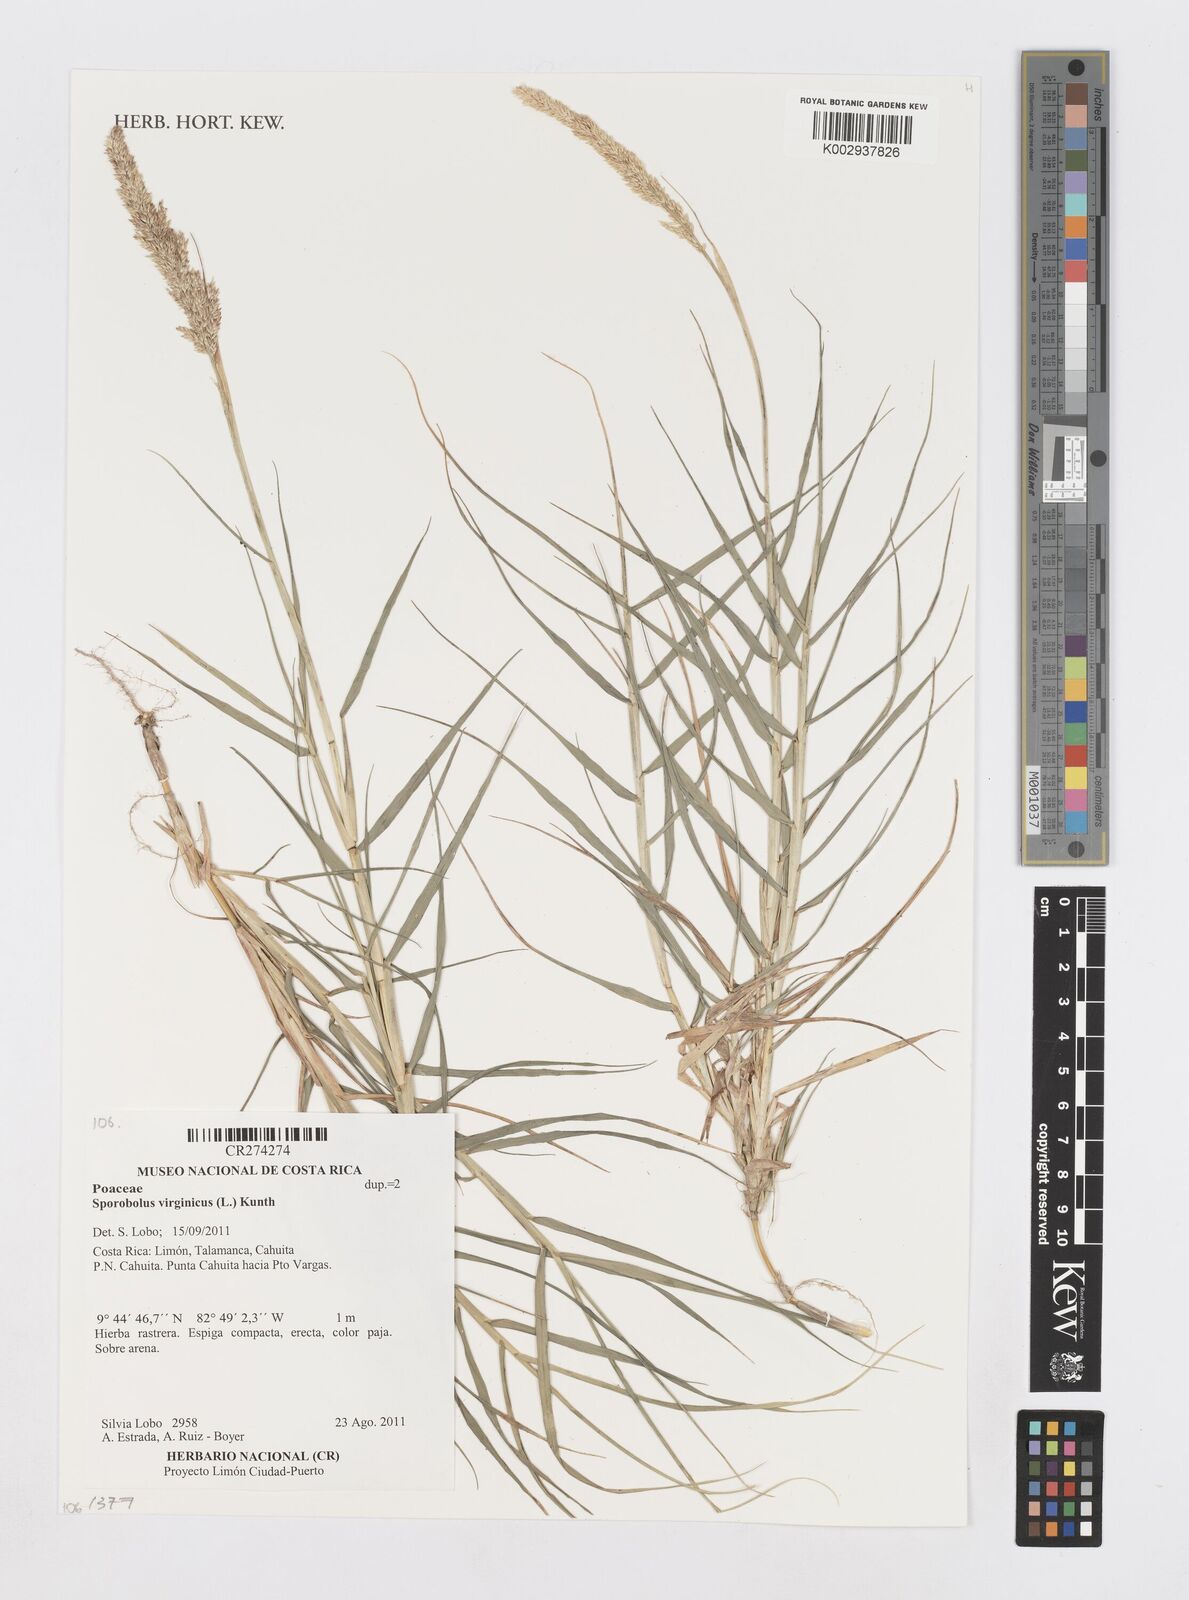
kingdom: Plantae
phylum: Tracheophyta
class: Liliopsida
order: Poales
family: Poaceae
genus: Sporobolus
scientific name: Sporobolus virginicus
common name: Beach dropseed
